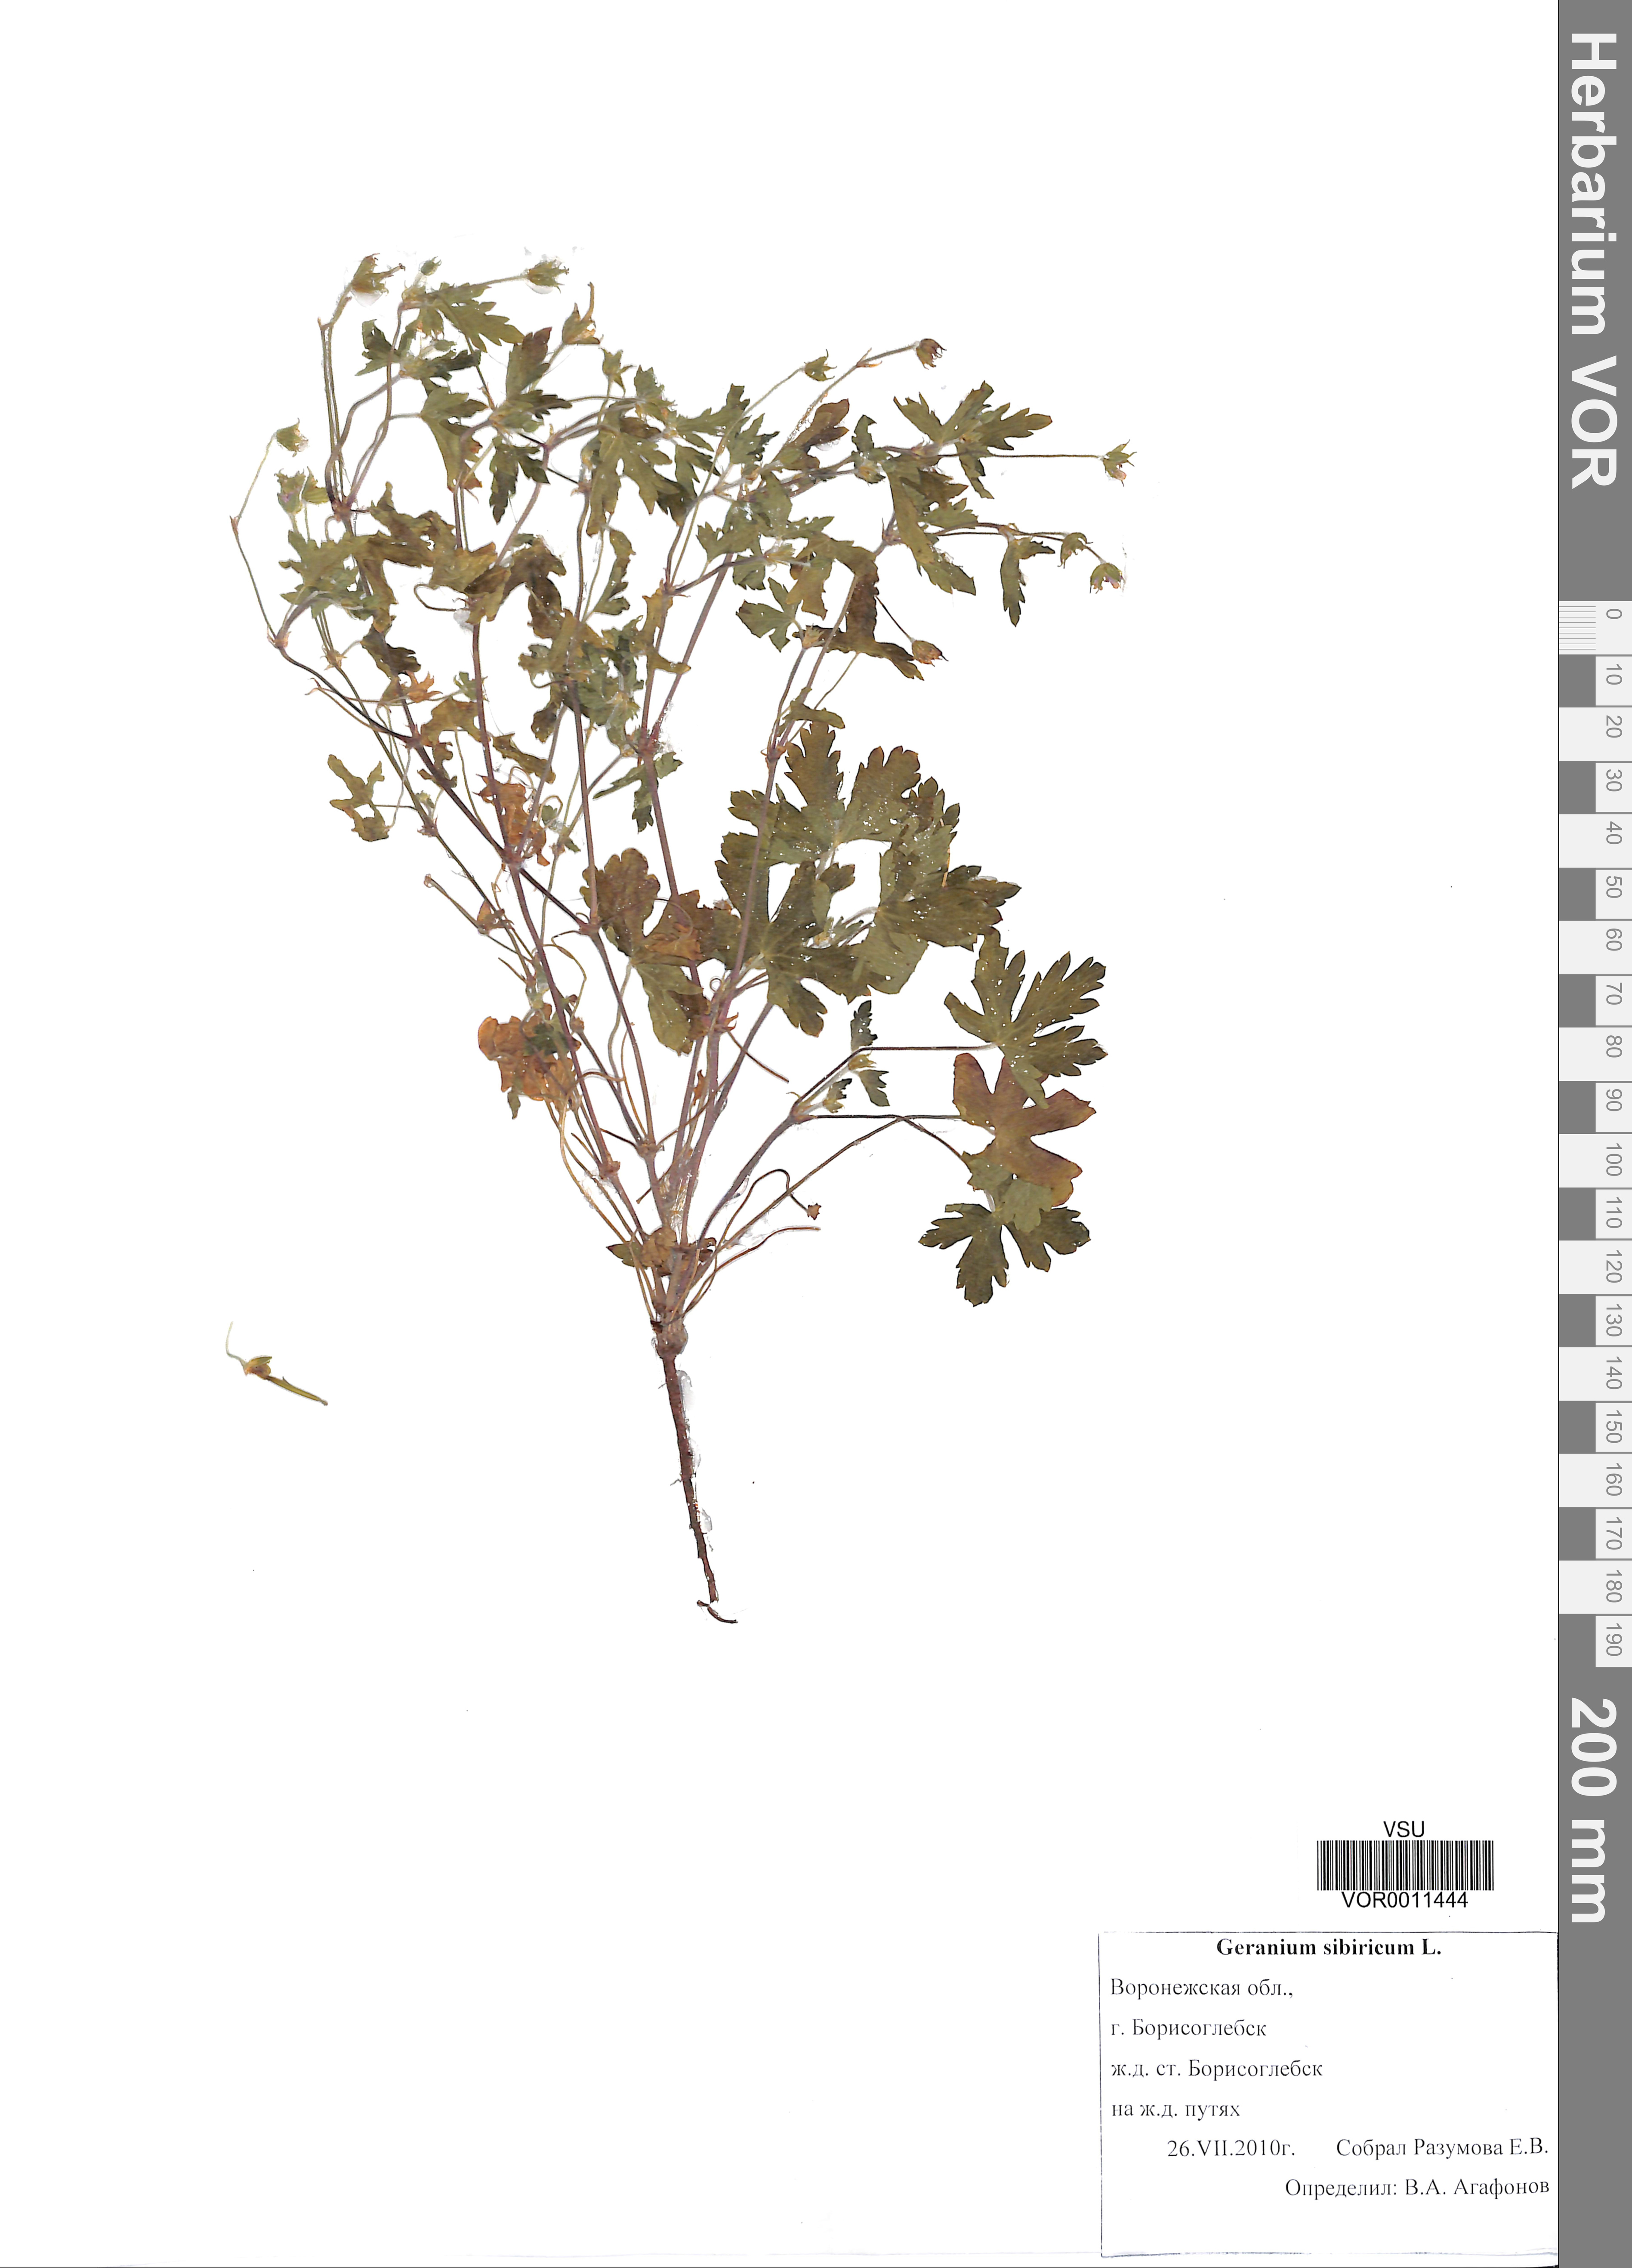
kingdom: Plantae
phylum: Tracheophyta
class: Magnoliopsida
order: Geraniales
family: Geraniaceae
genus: Geranium
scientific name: Geranium sibiricum
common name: Siberian crane's-bill
